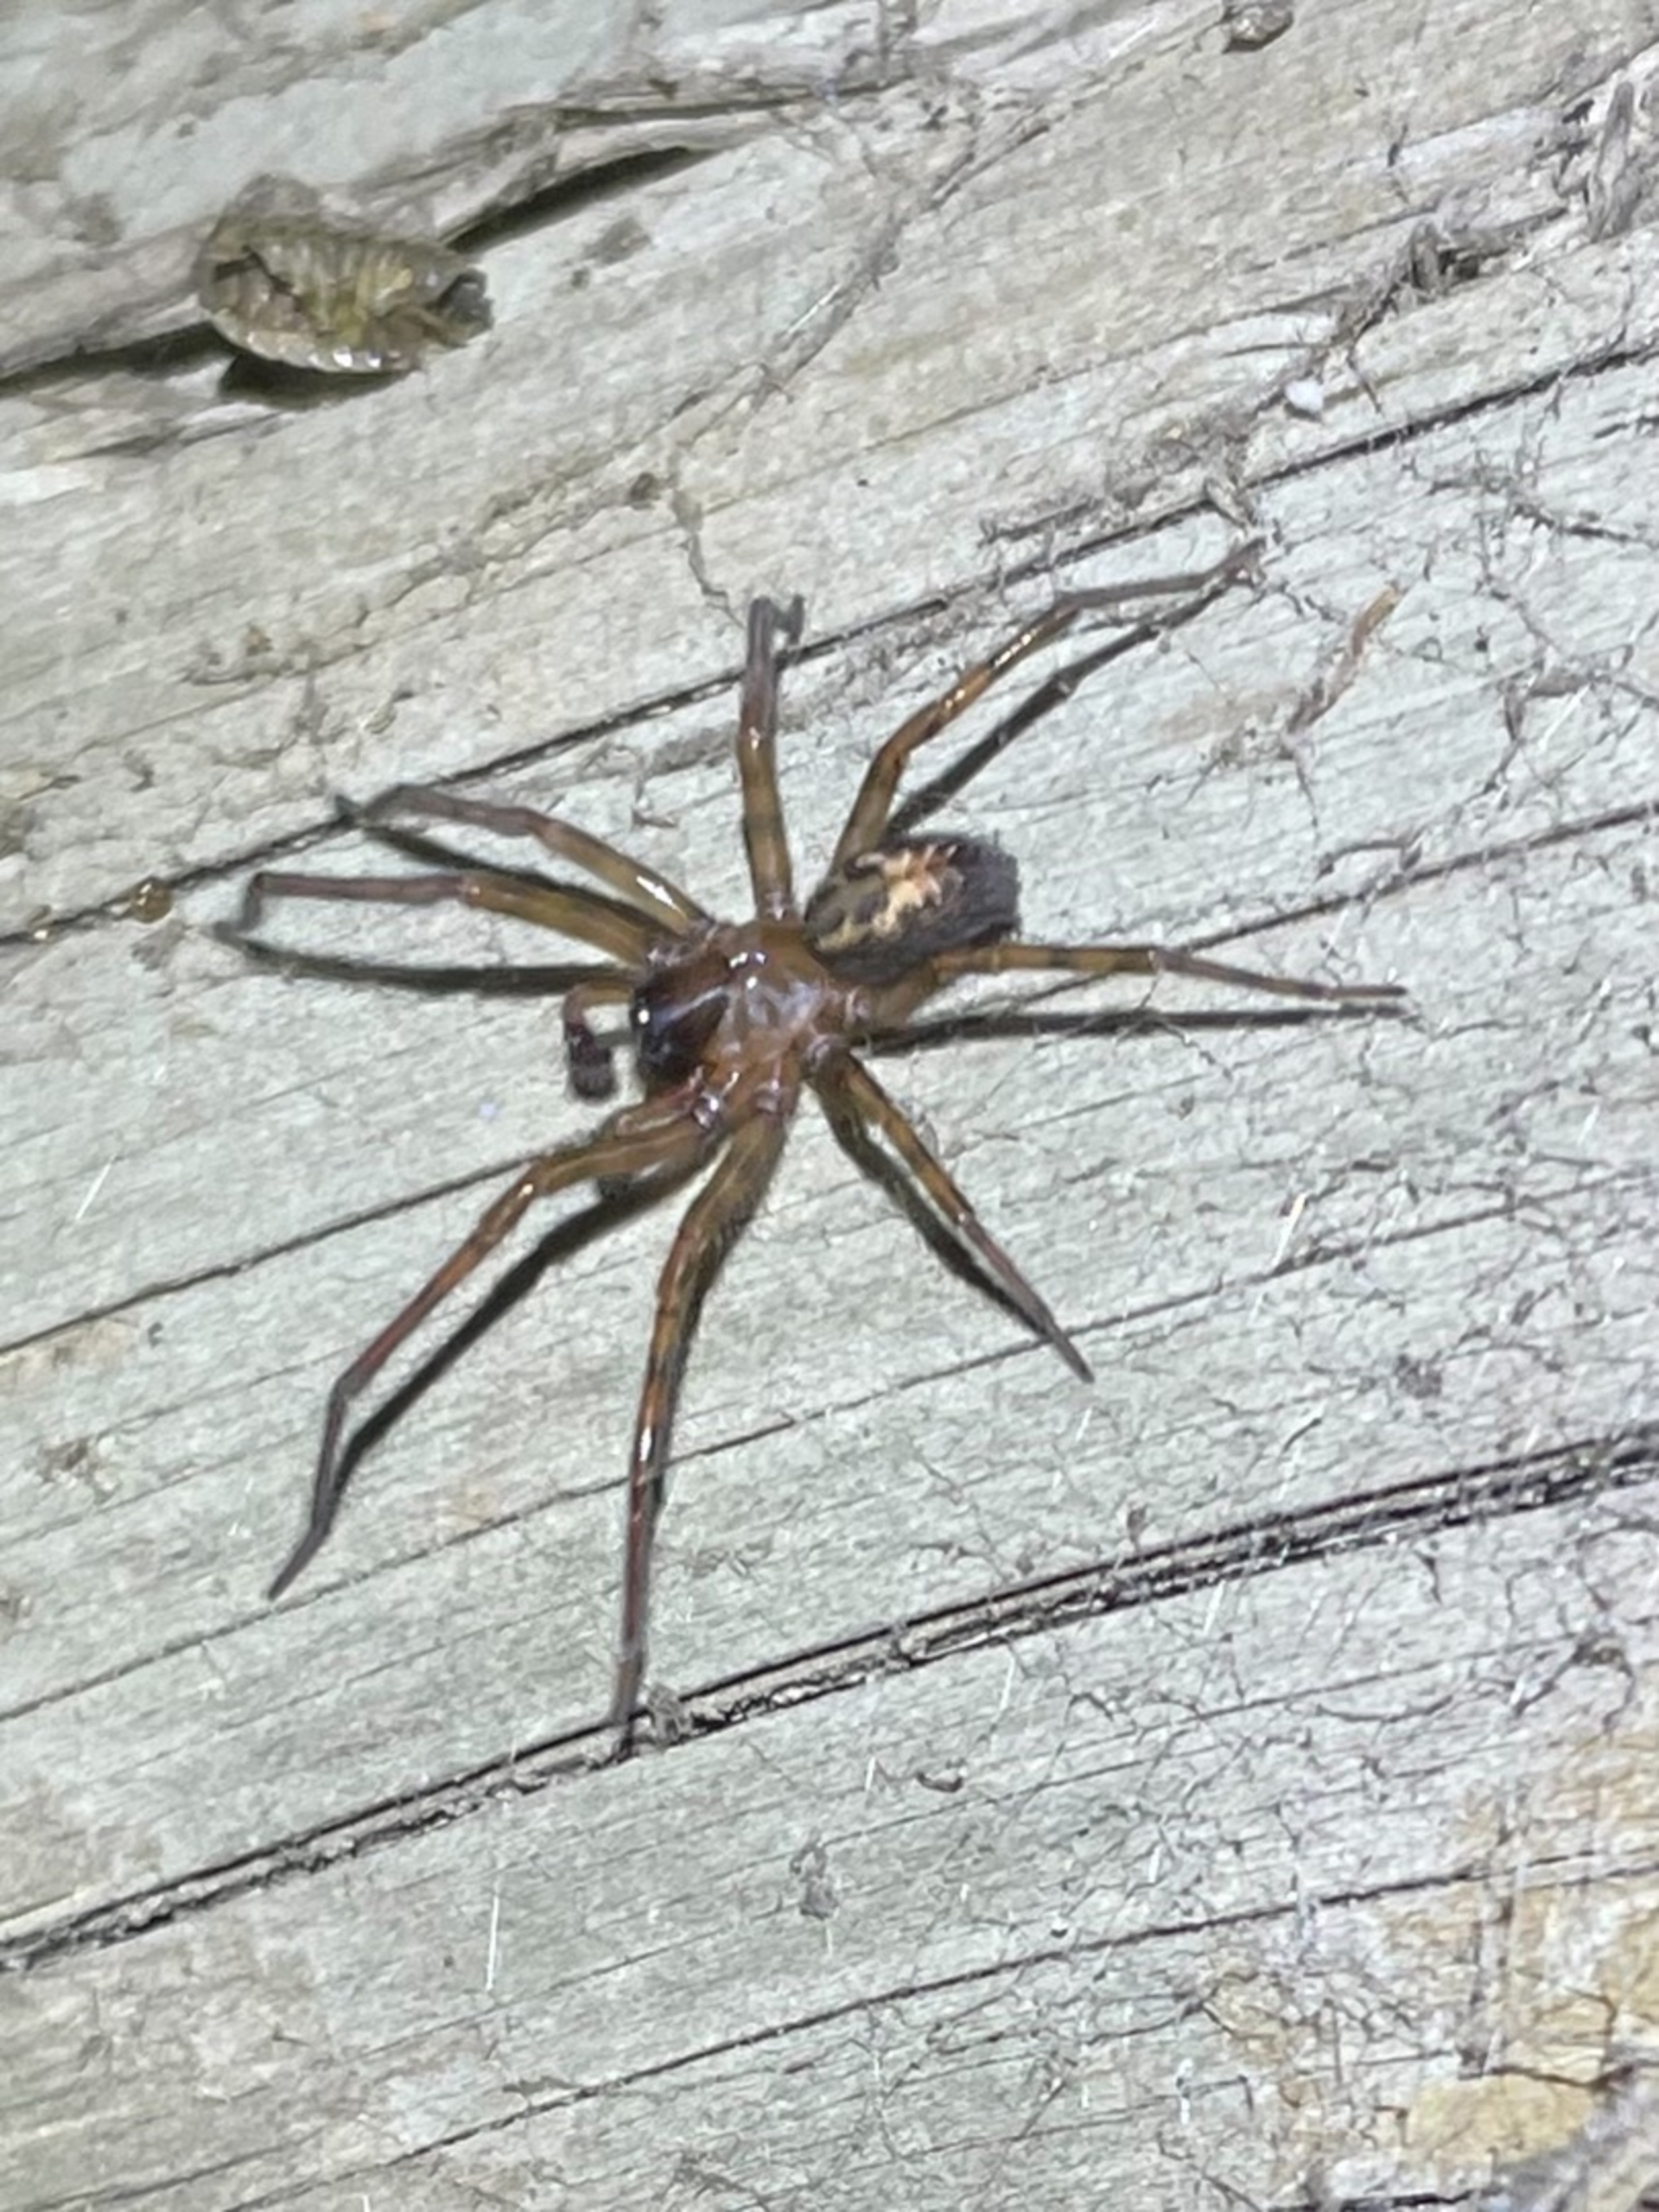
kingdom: Animalia
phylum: Arthropoda
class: Arachnida
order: Araneae
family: Amaurobiidae
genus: Amaurobius
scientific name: Amaurobius
